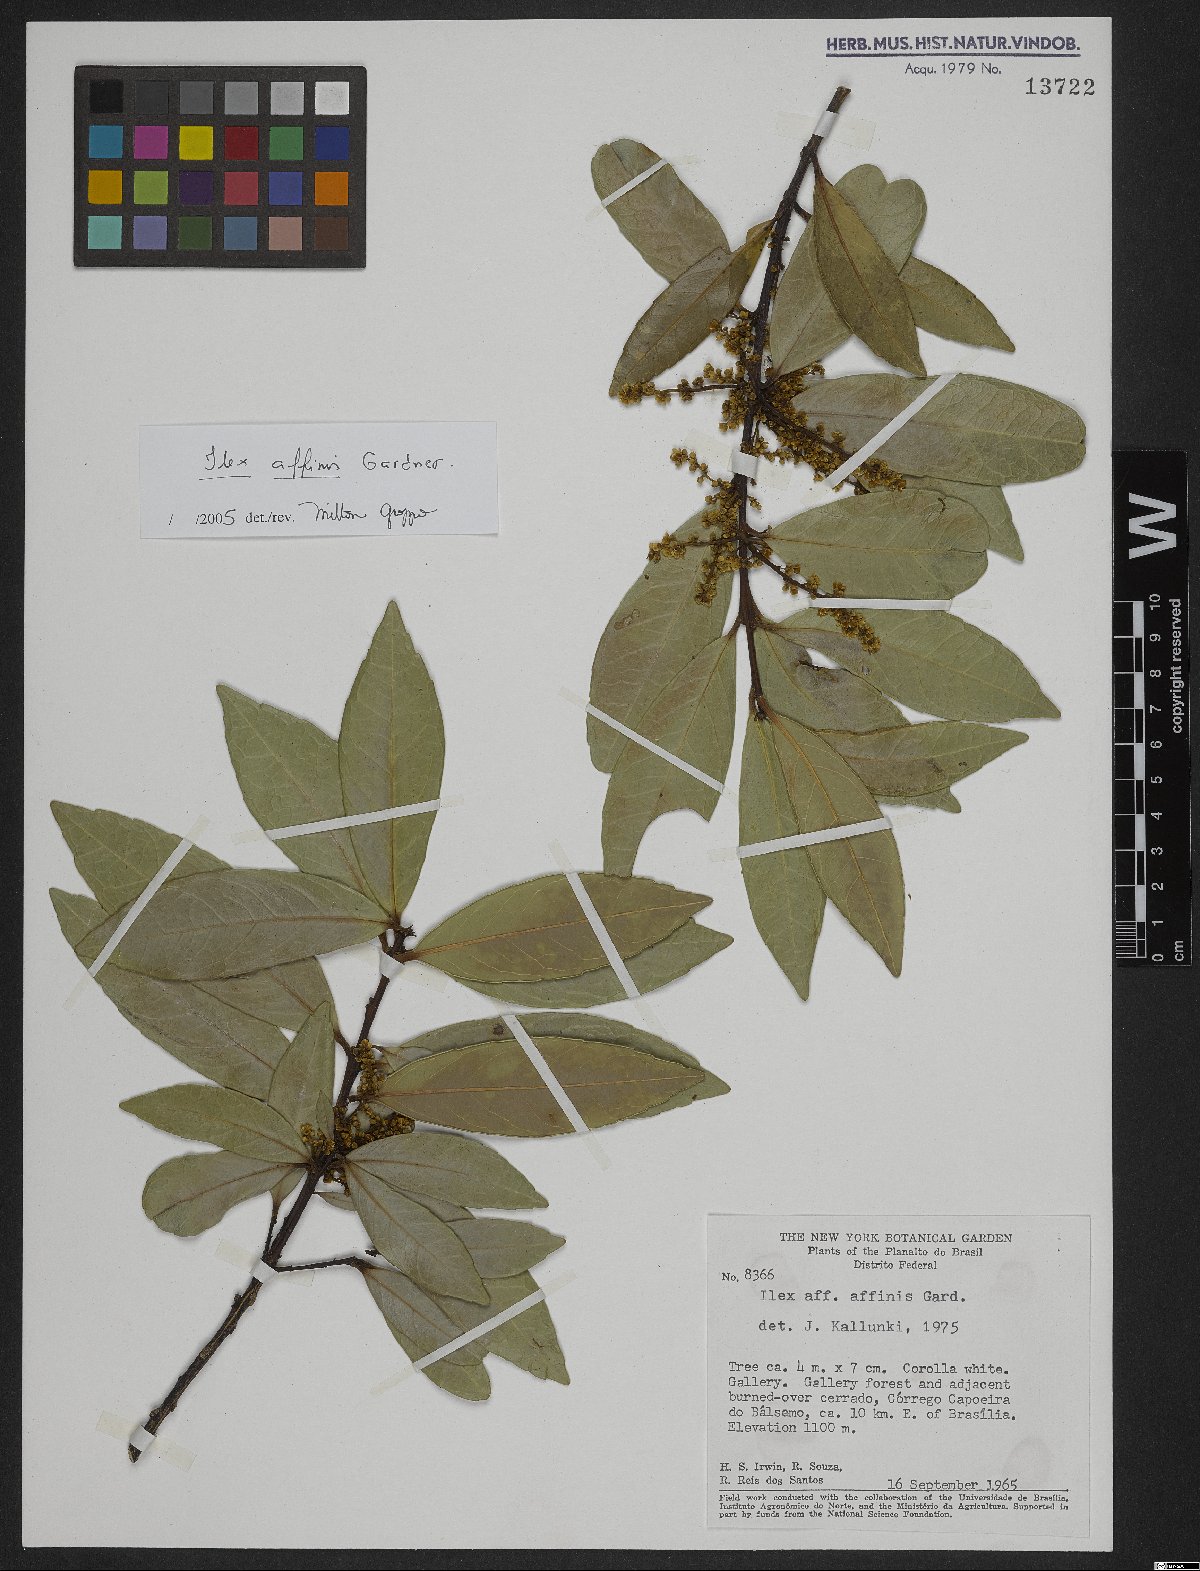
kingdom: Plantae
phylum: Tracheophyta
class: Magnoliopsida
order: Aquifoliales
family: Aquifoliaceae
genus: Ilex
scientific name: Ilex affinis
